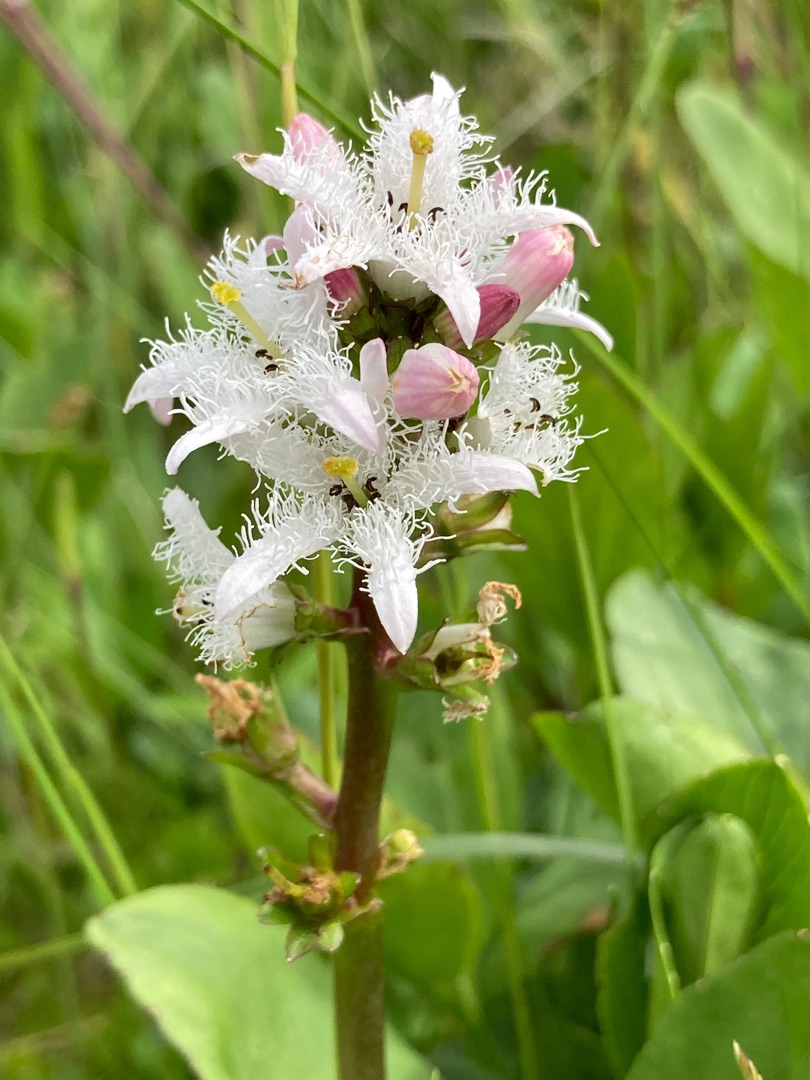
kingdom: Plantae
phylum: Tracheophyta
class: Magnoliopsida
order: Asterales
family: Menyanthaceae
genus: Menyanthes
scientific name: Menyanthes trifoliata
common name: Bukkeblad
